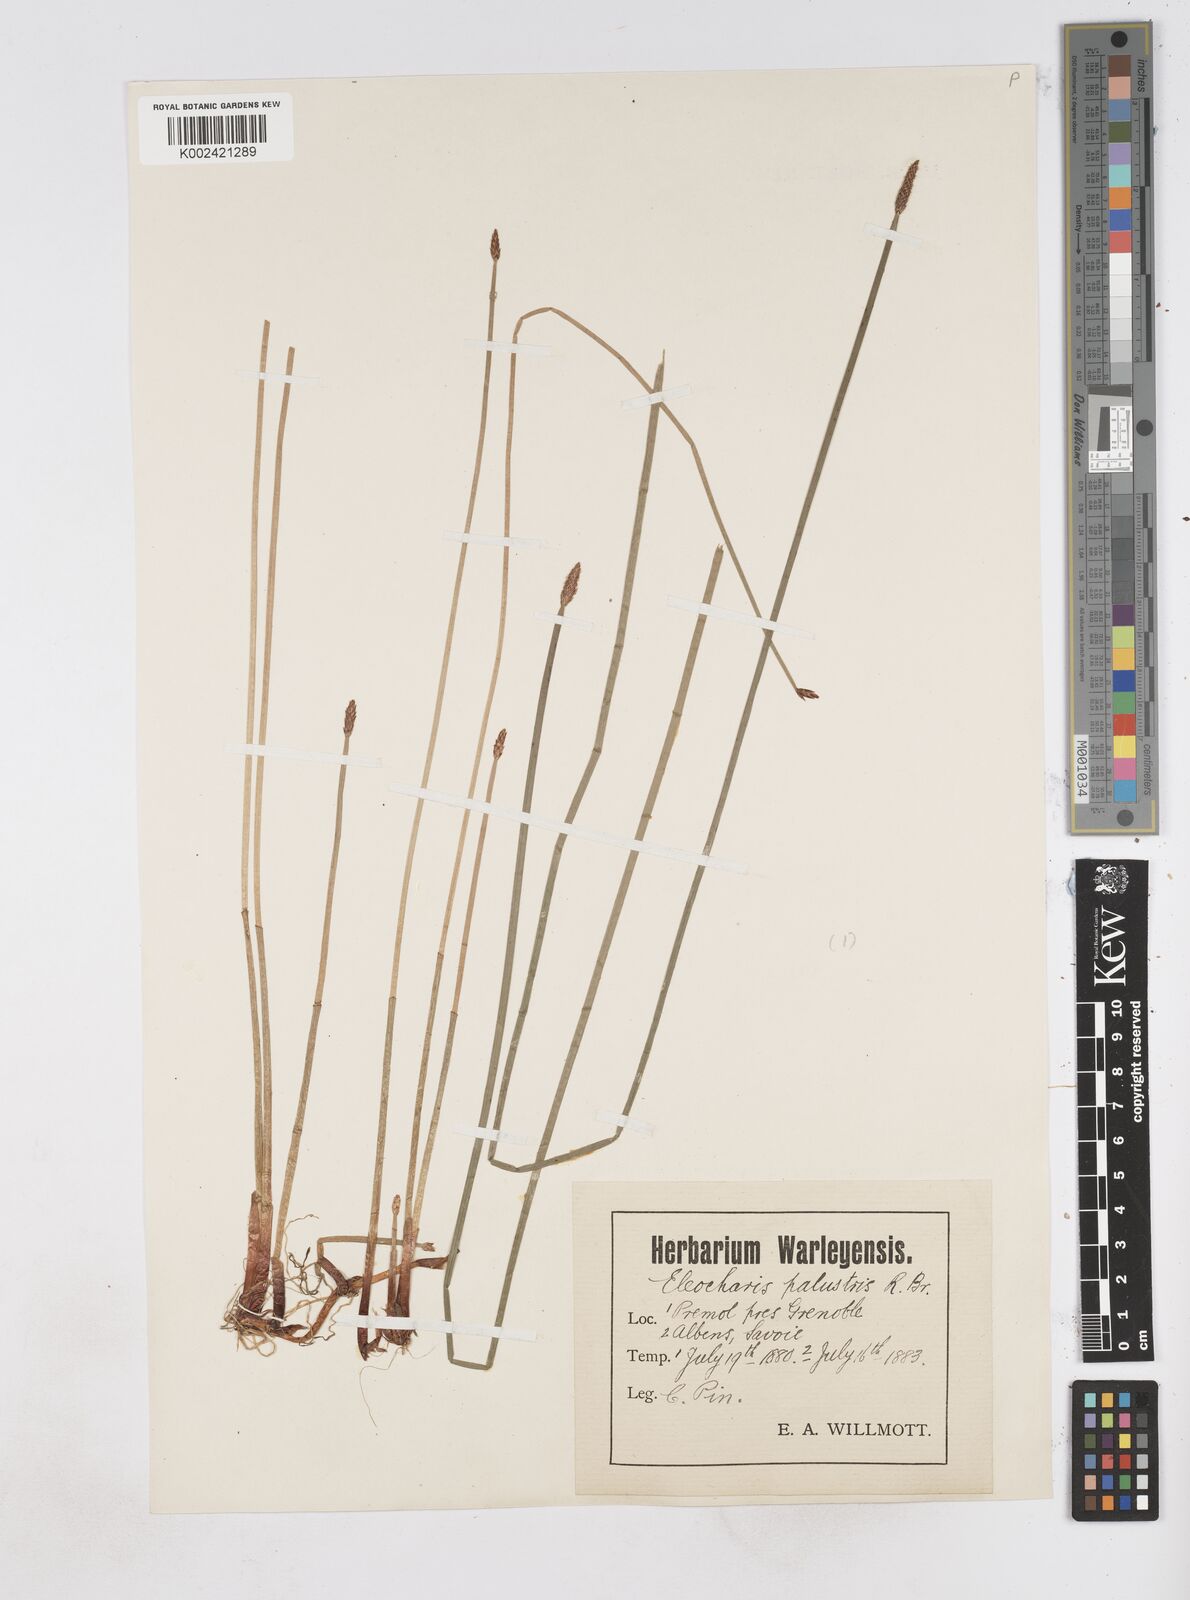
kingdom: Plantae
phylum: Tracheophyta
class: Liliopsida
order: Poales
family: Cyperaceae
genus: Eleocharis
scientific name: Eleocharis palustris
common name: Common spike-rush
